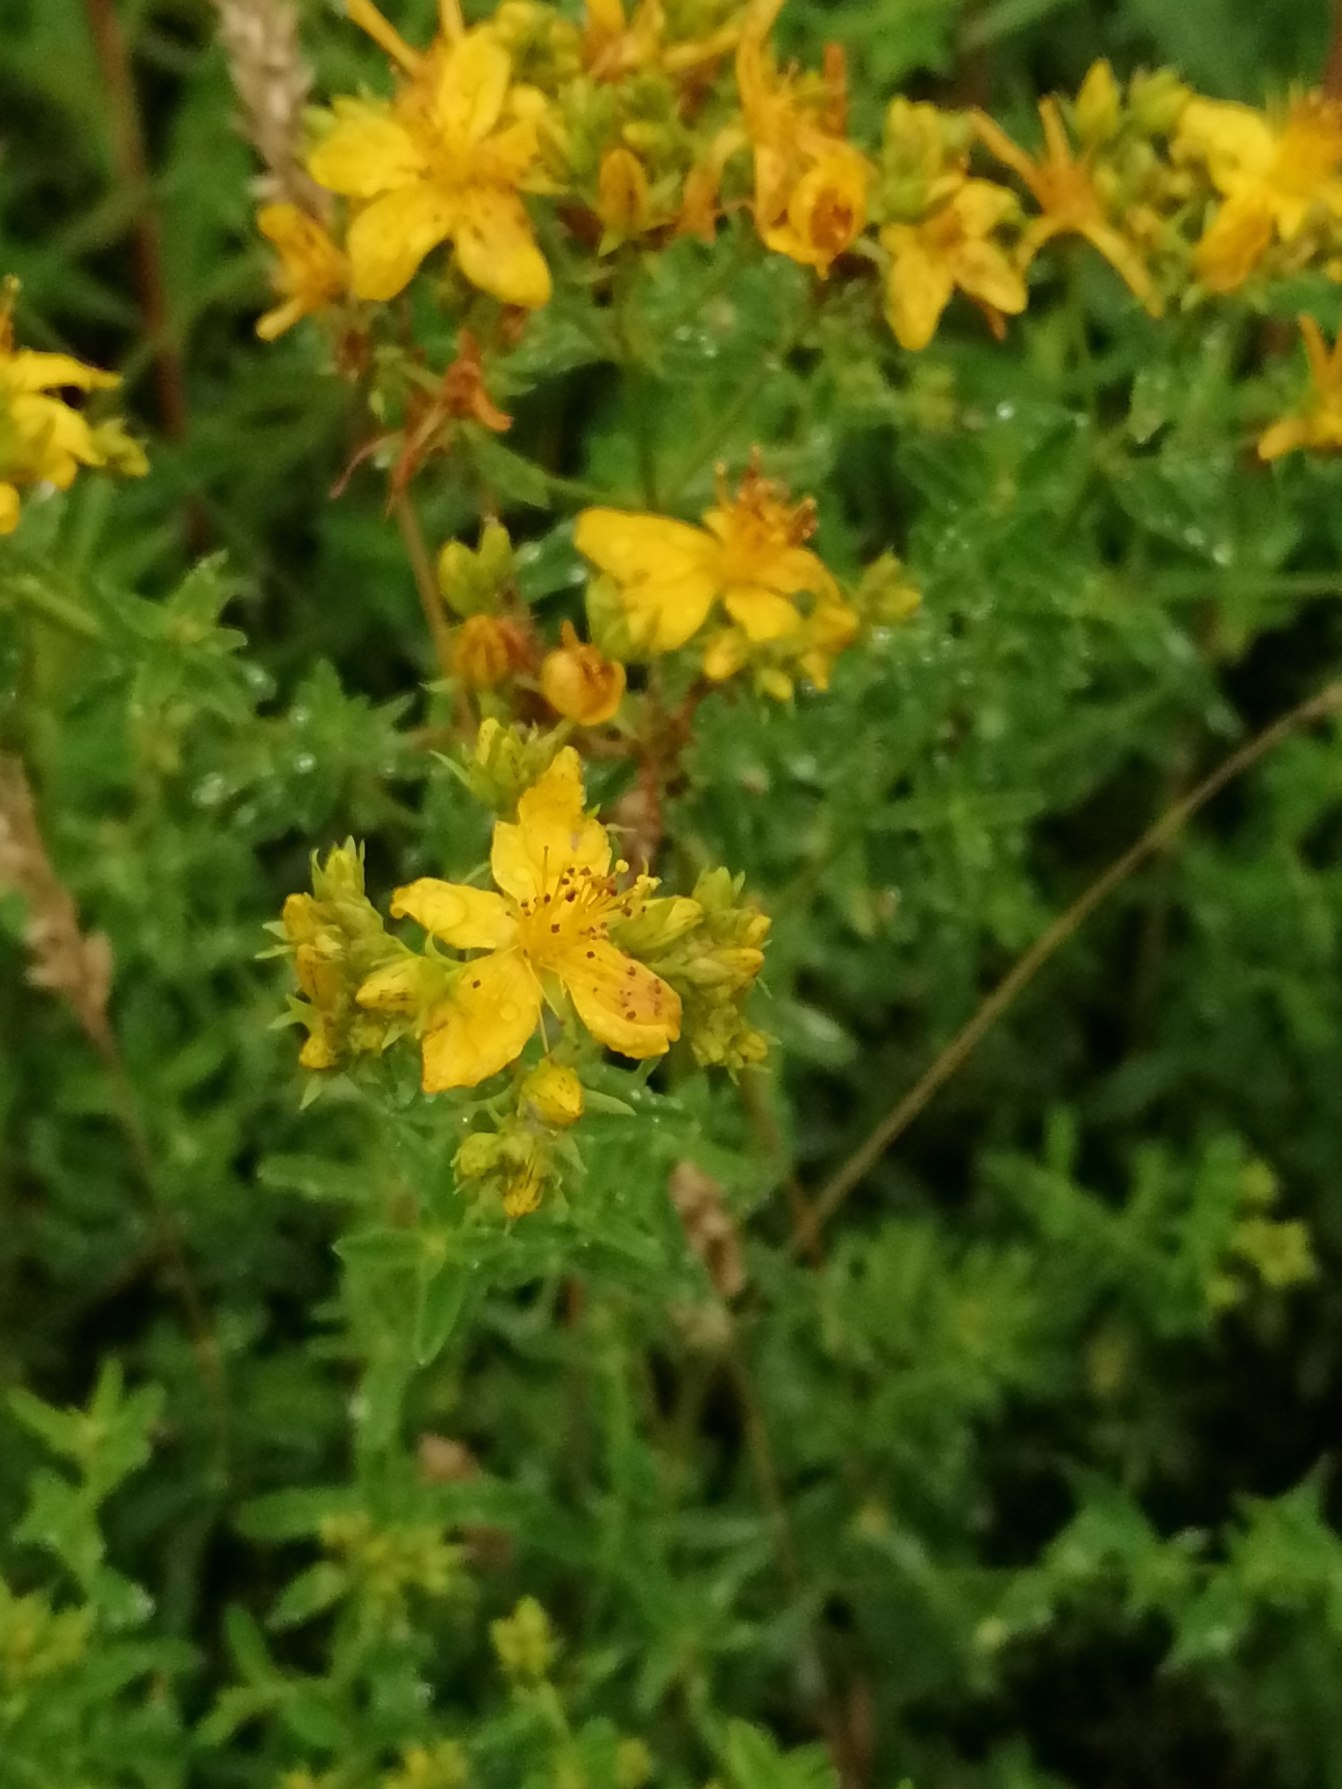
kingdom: Plantae
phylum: Tracheophyta
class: Magnoliopsida
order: Malpighiales
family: Hypericaceae
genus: Hypericum
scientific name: Hypericum perforatum
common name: Prikbladet perikon
